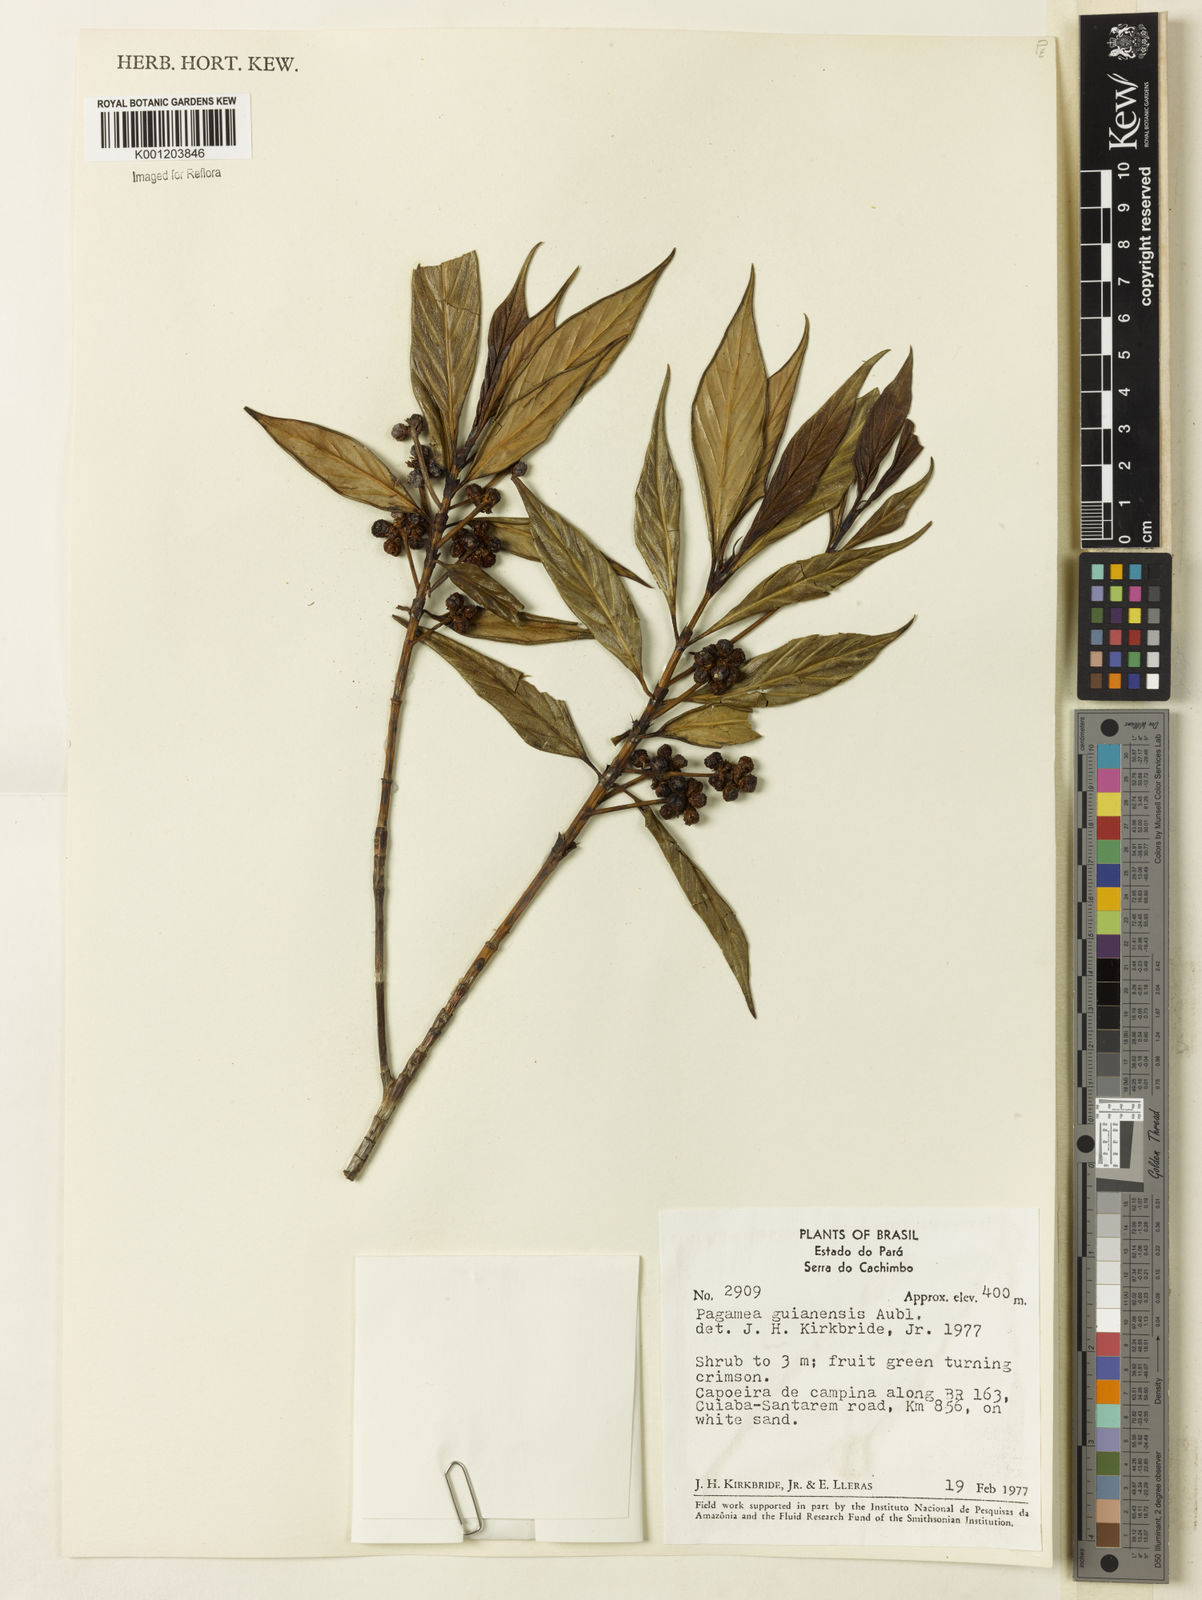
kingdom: Plantae
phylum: Tracheophyta
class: Magnoliopsida
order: Gentianales
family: Rubiaceae
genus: Pagamea
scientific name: Pagamea guianensis
